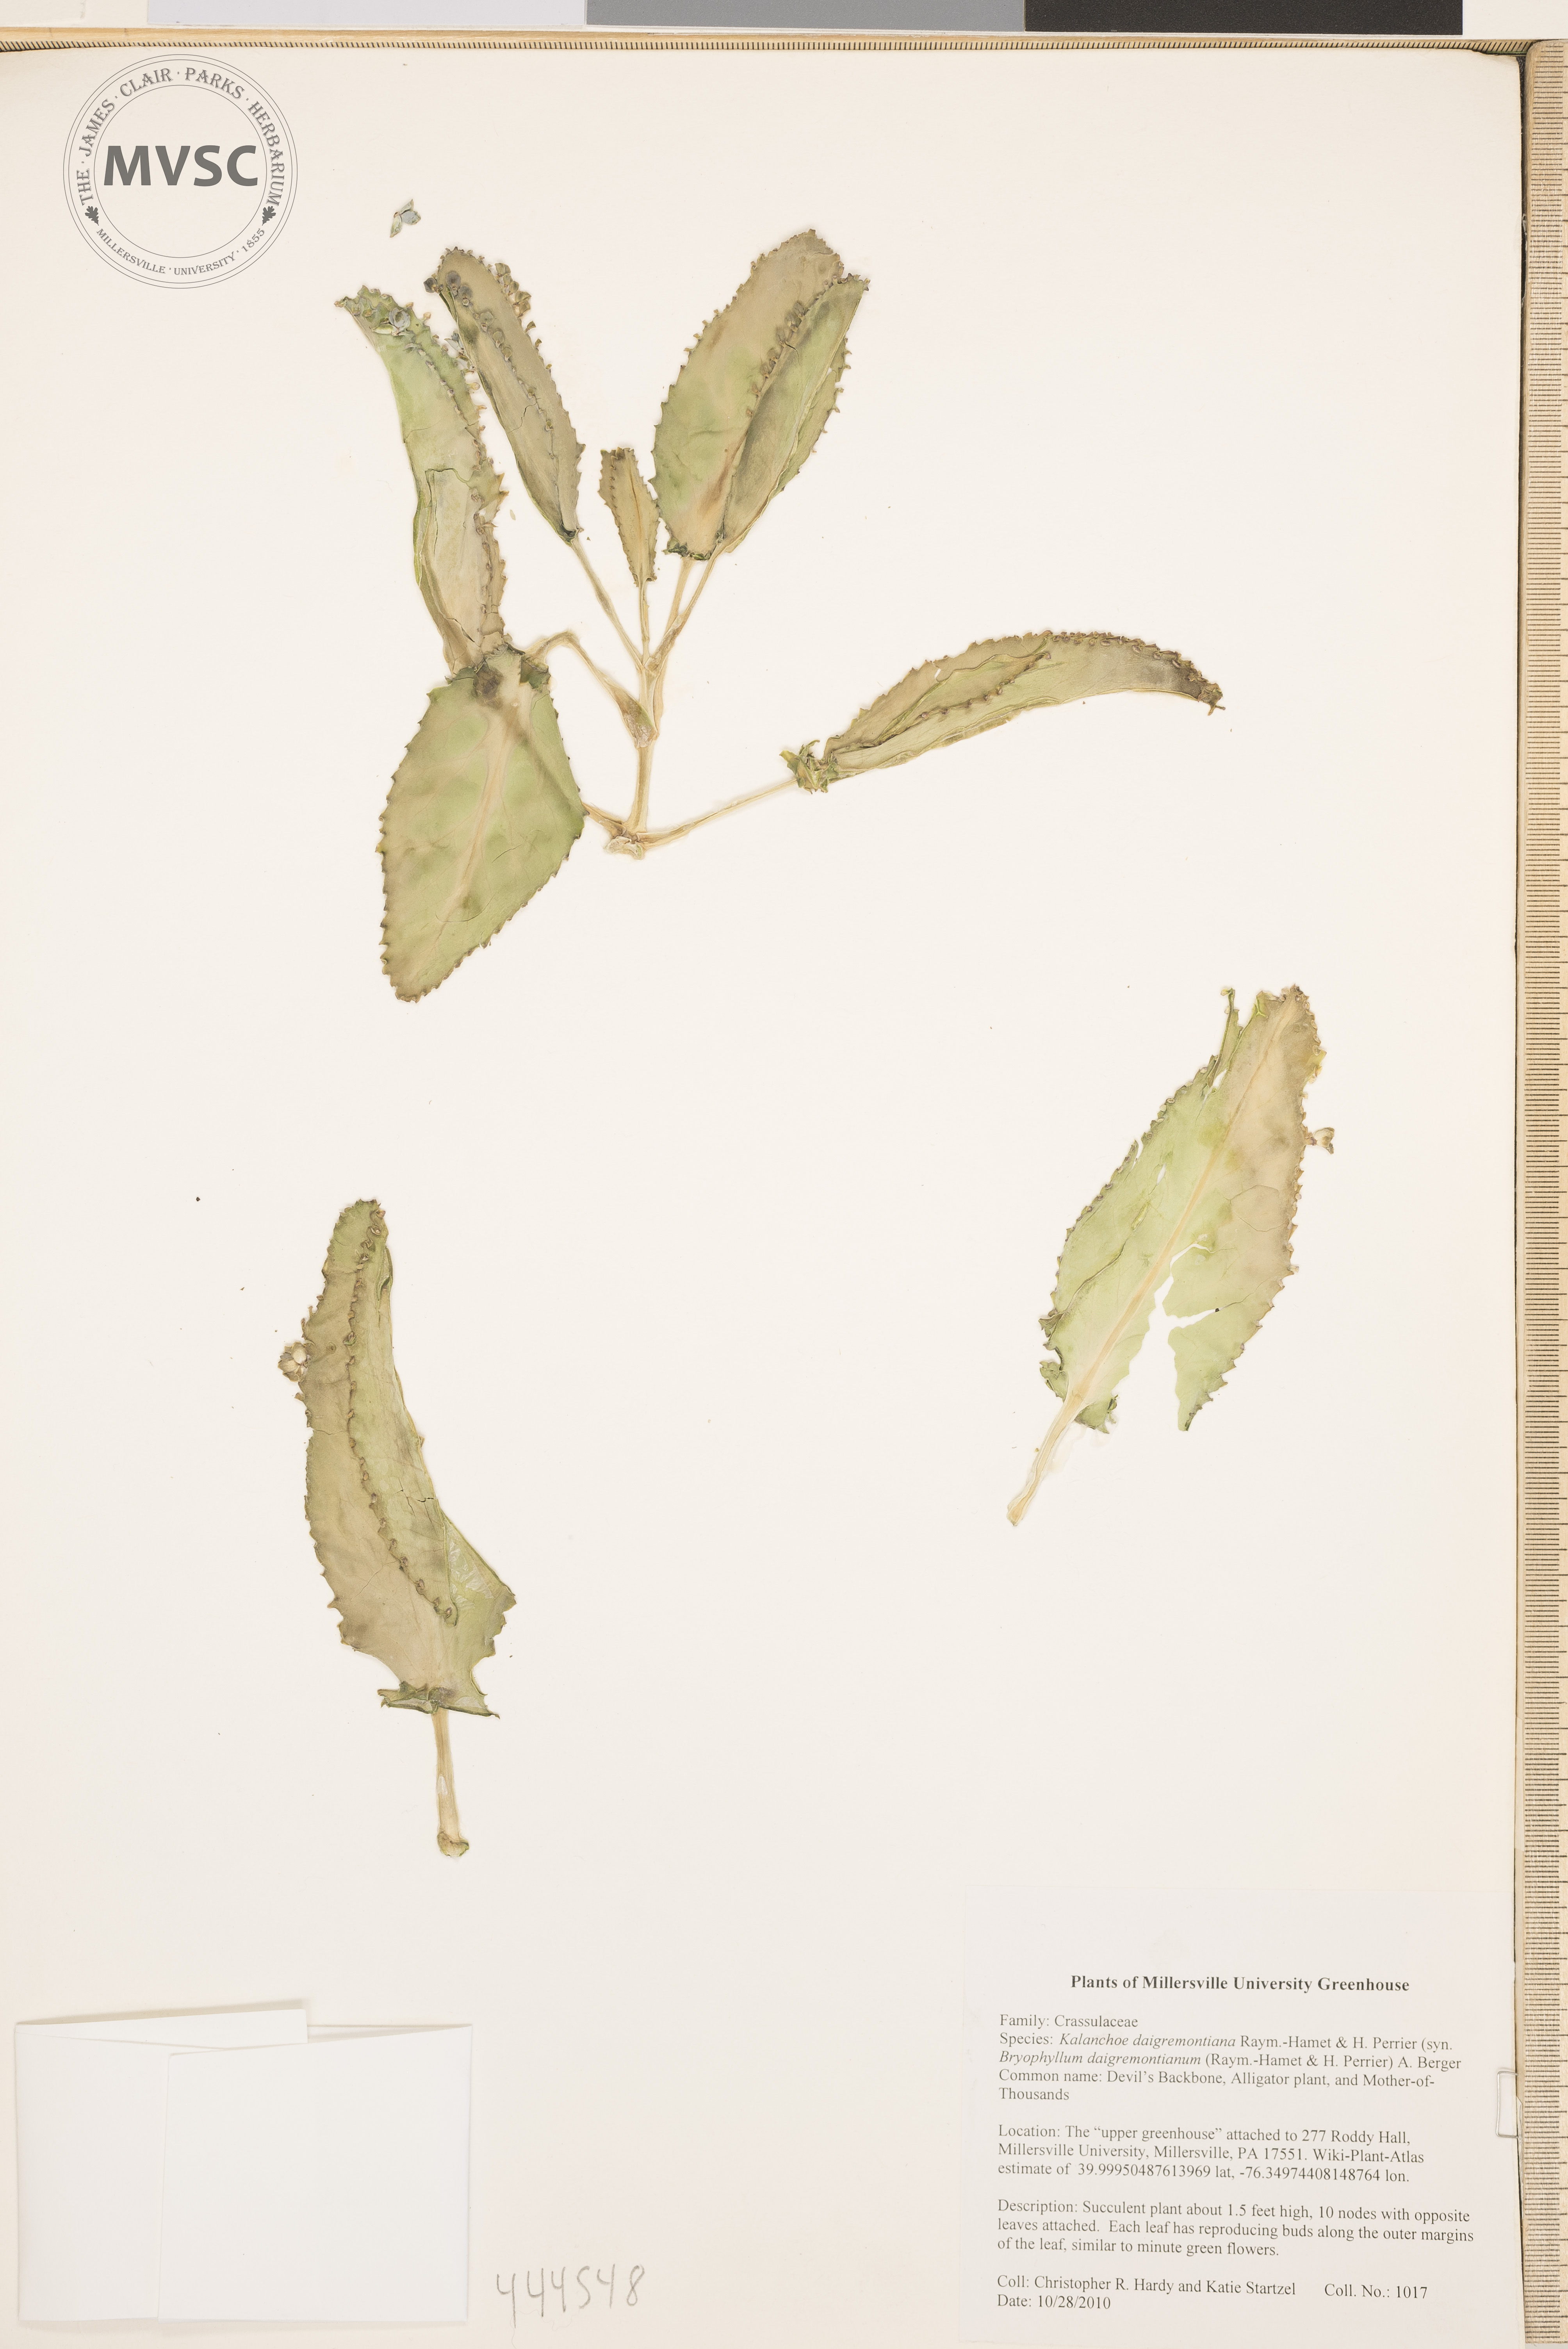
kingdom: Plantae
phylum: Tracheophyta
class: Magnoliopsida
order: Saxifragales
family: Crassulaceae
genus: Kalanchoe
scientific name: Kalanchoe daigremontiana
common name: Devil's backbone
